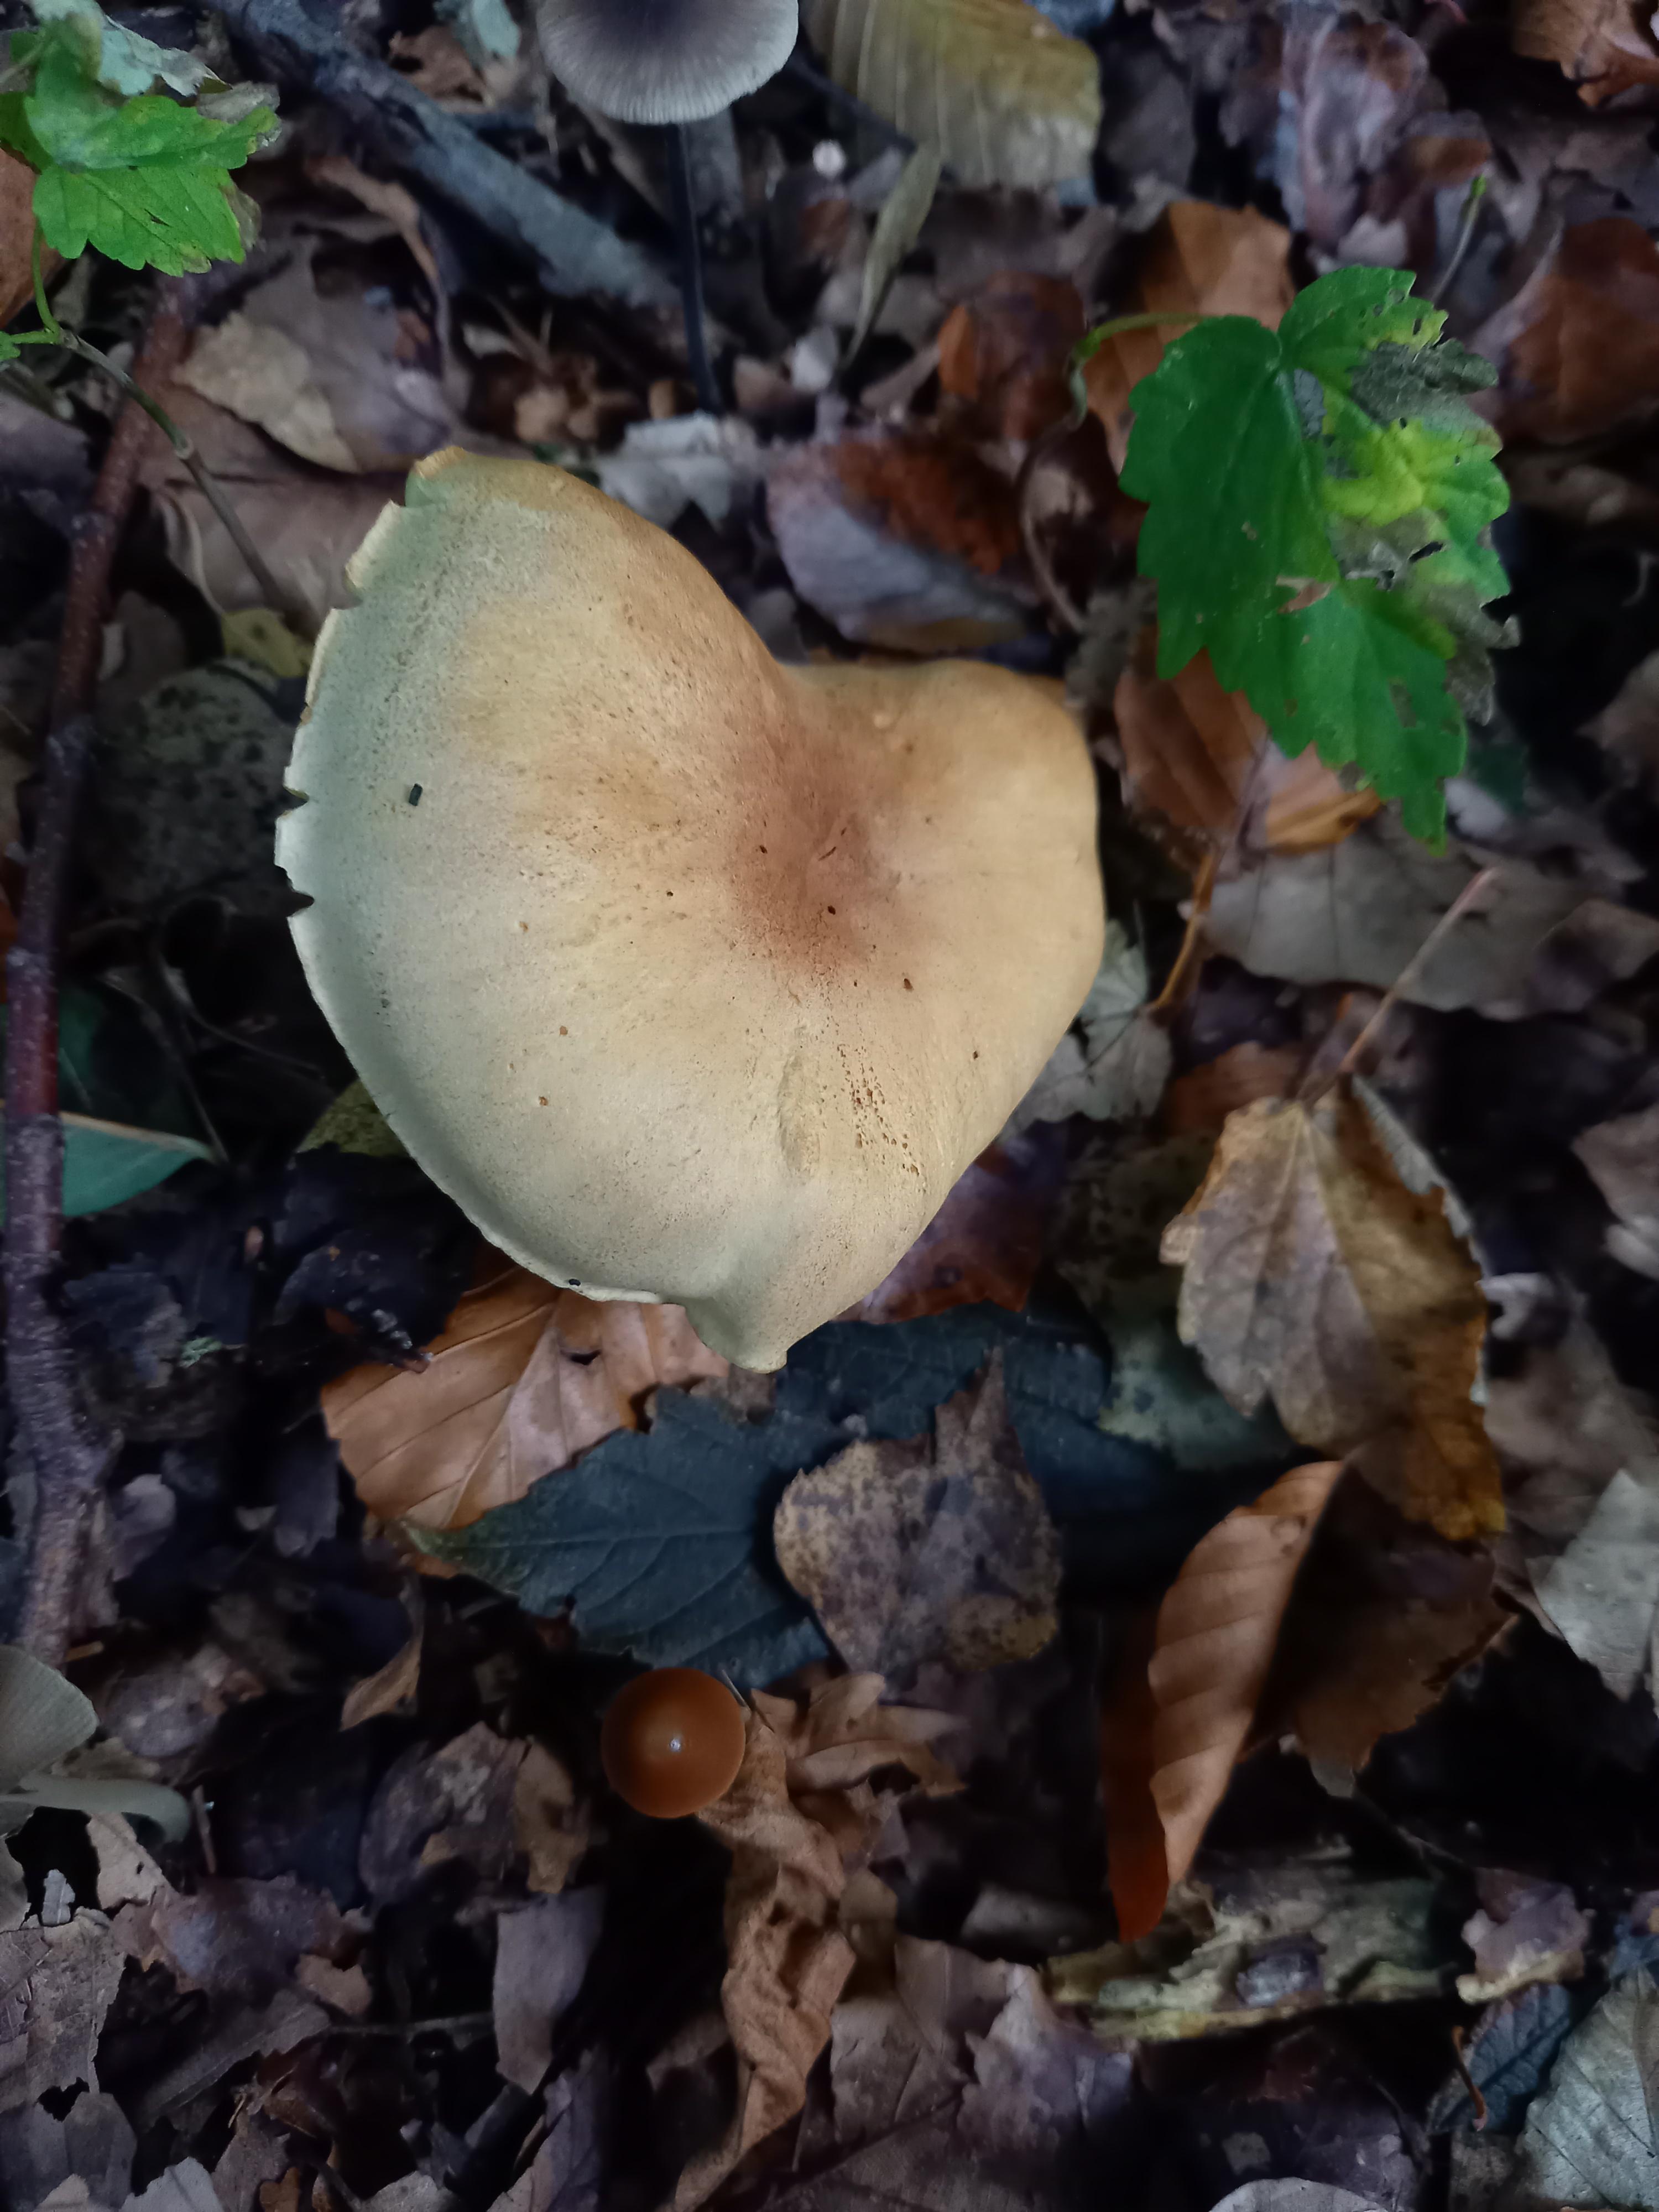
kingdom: Fungi
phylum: Basidiomycota
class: Agaricomycetes
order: Agaricales
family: Tricholomataceae
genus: Tricholoma
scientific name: Tricholoma sulphureum
